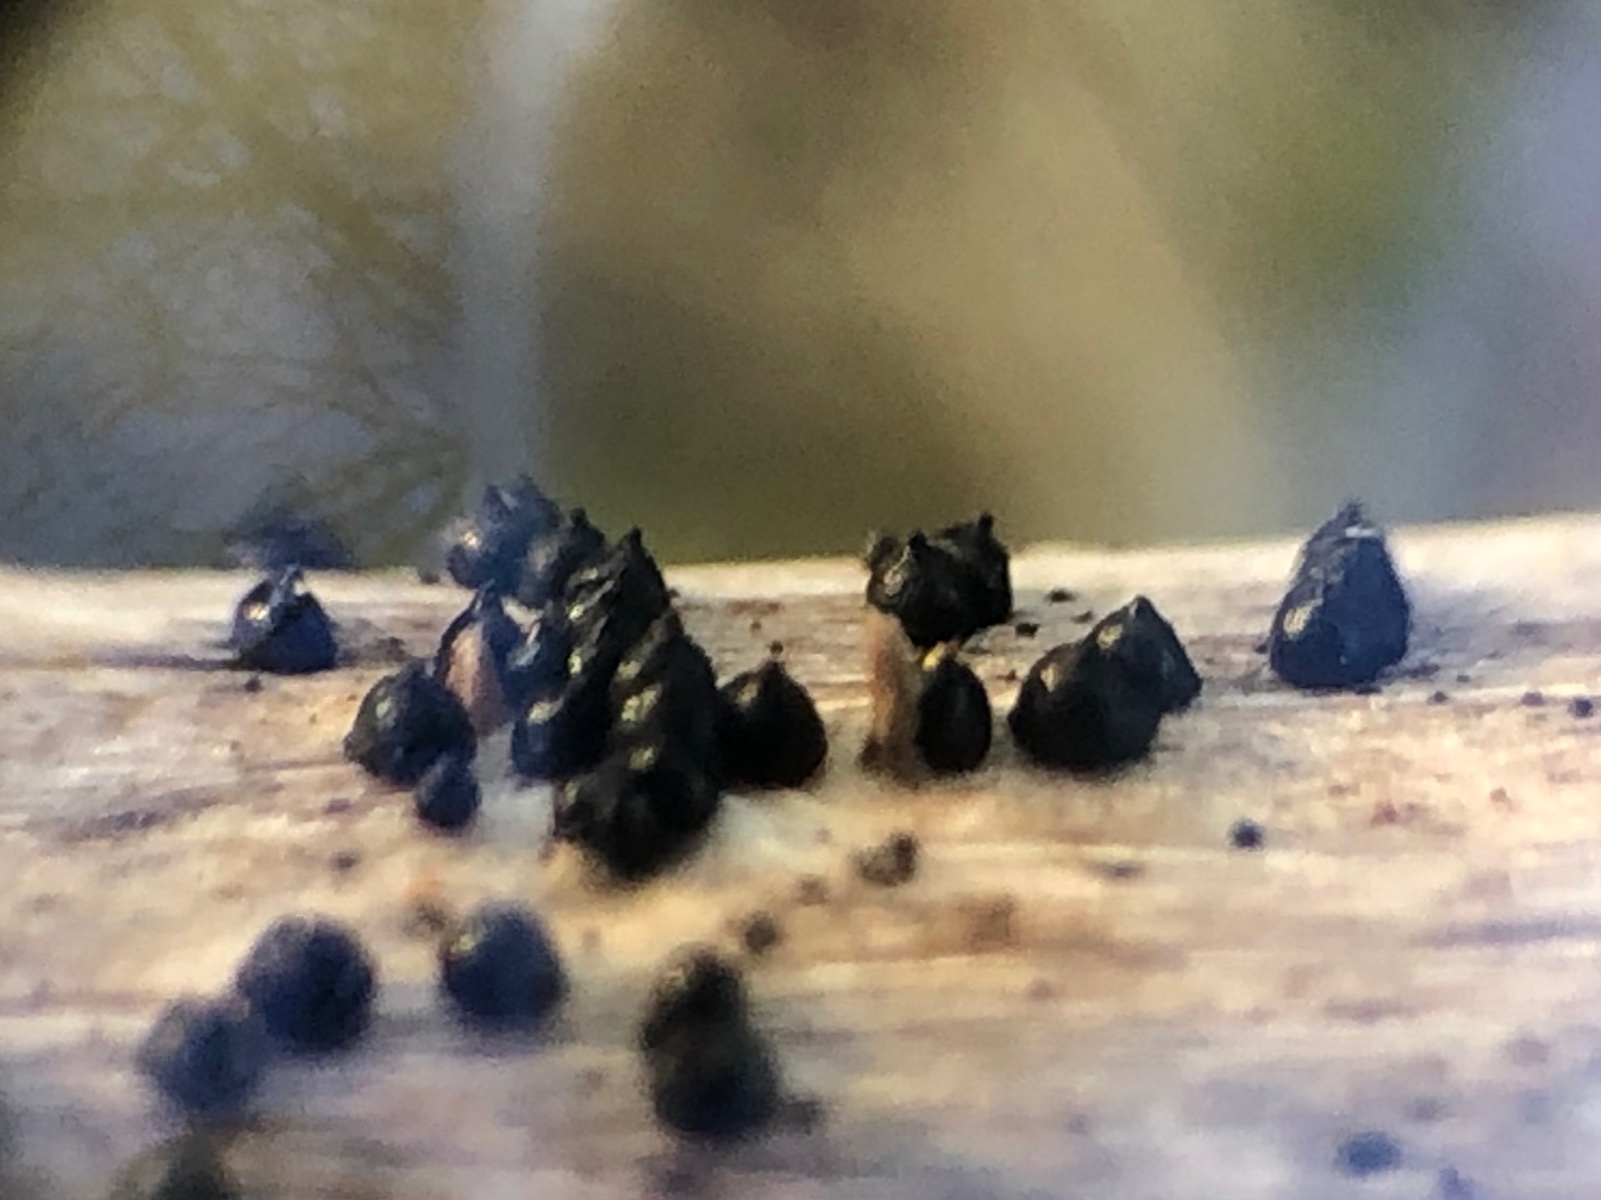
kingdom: Fungi
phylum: Ascomycota
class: Dothideomycetes
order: Pleosporales
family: Leptosphaeriaceae
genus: Leptosphaeria
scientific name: Leptosphaeria
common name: kulkegle
